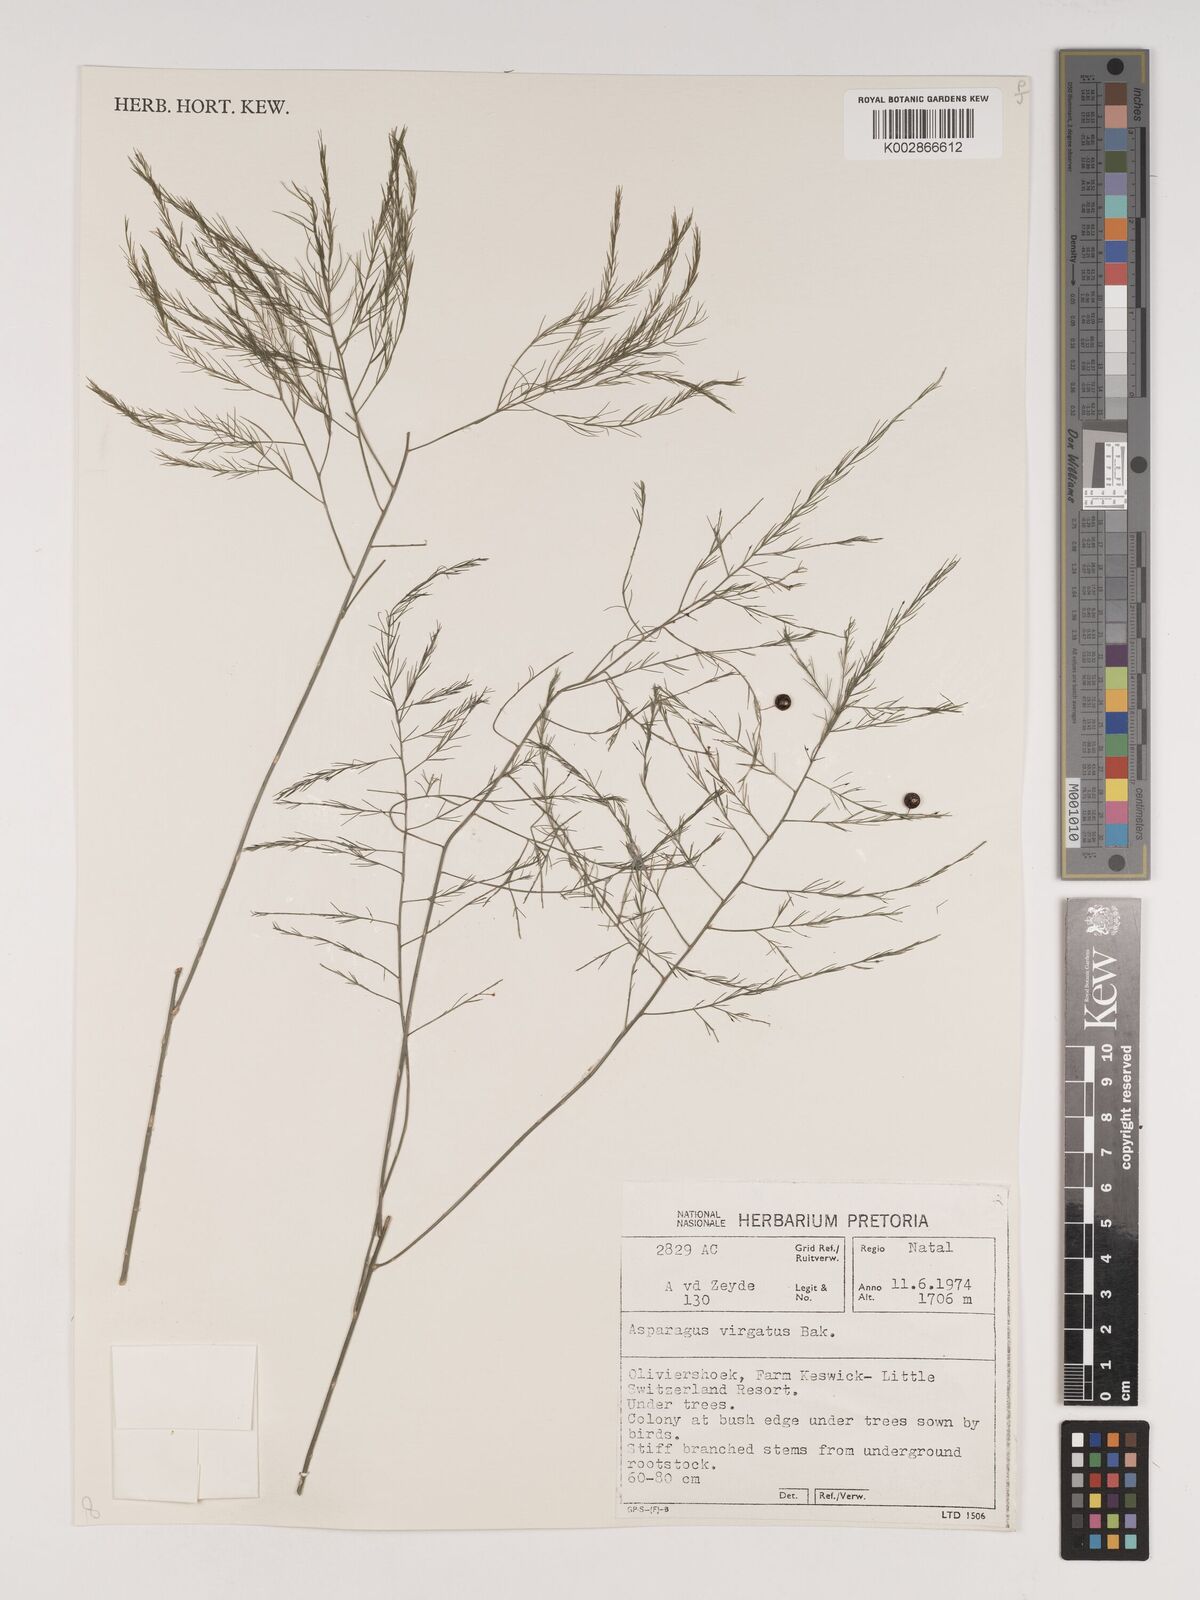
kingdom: Plantae
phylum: Tracheophyta
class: Liliopsida
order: Asparagales
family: Asparagaceae
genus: Asparagus
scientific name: Asparagus virgatus
